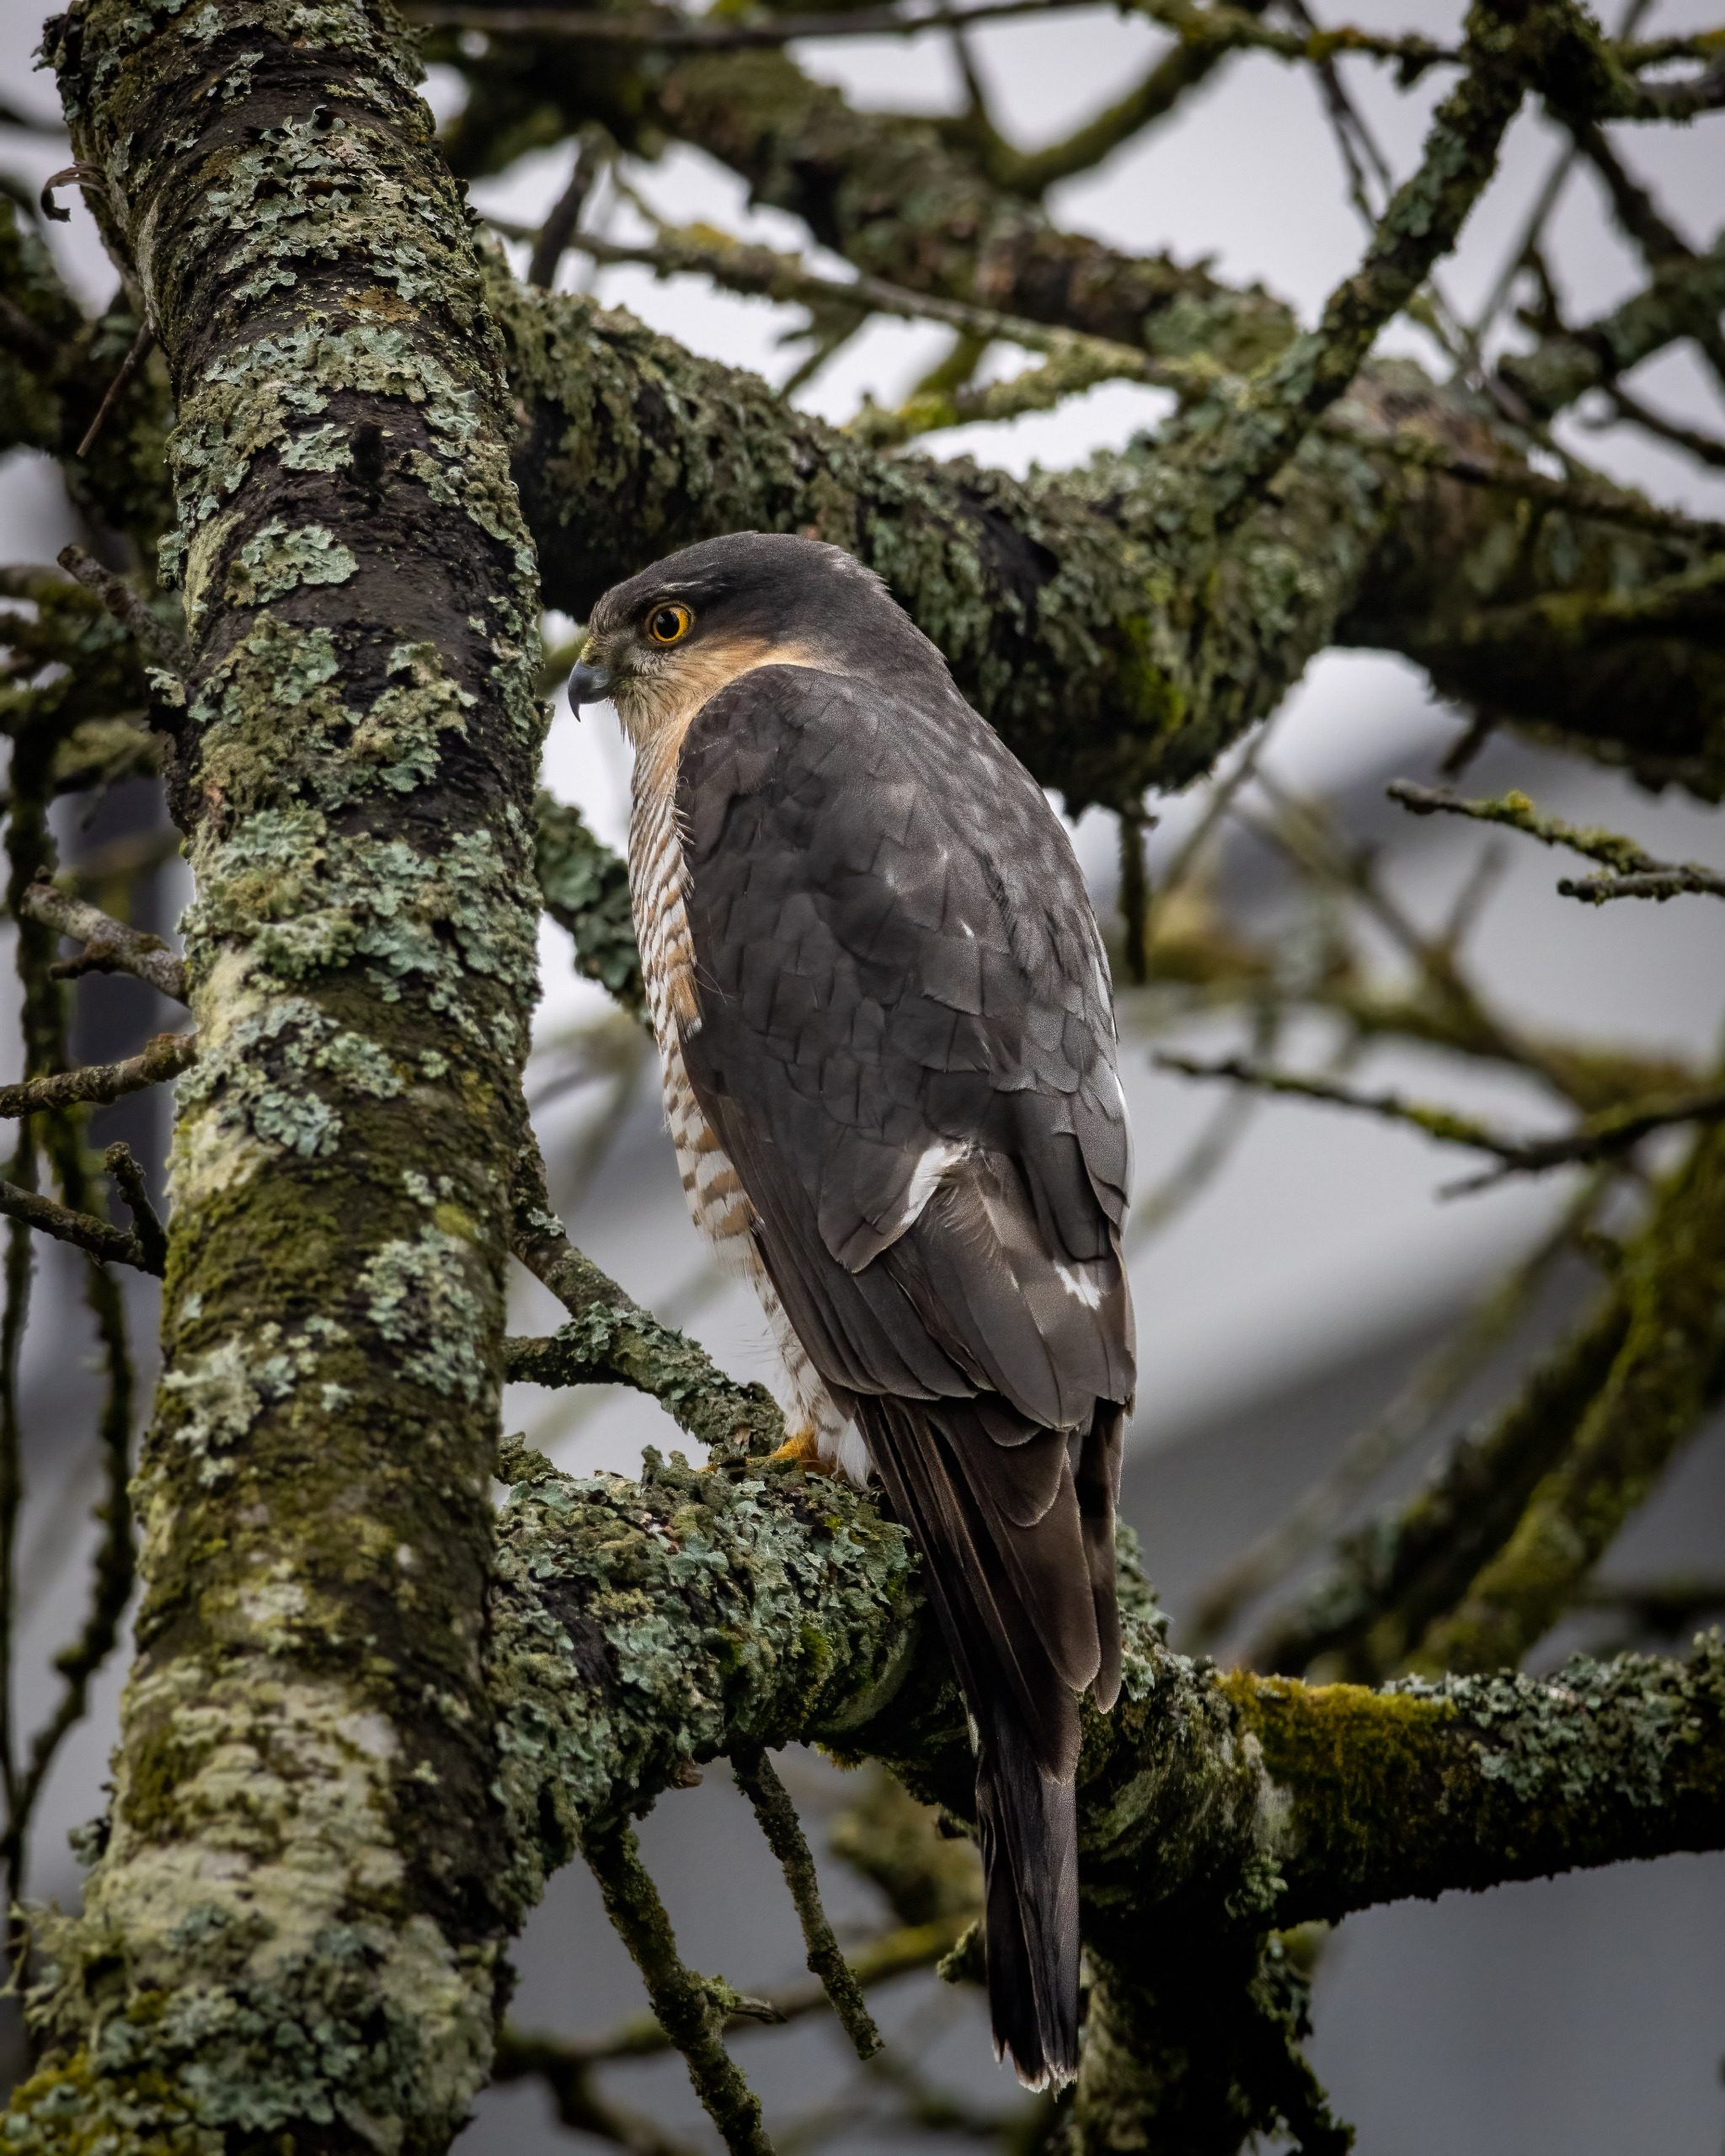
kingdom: Animalia
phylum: Chordata
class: Aves
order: Accipitriformes
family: Accipitridae
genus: Accipiter
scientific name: Accipiter nisus
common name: Spurvehøg
